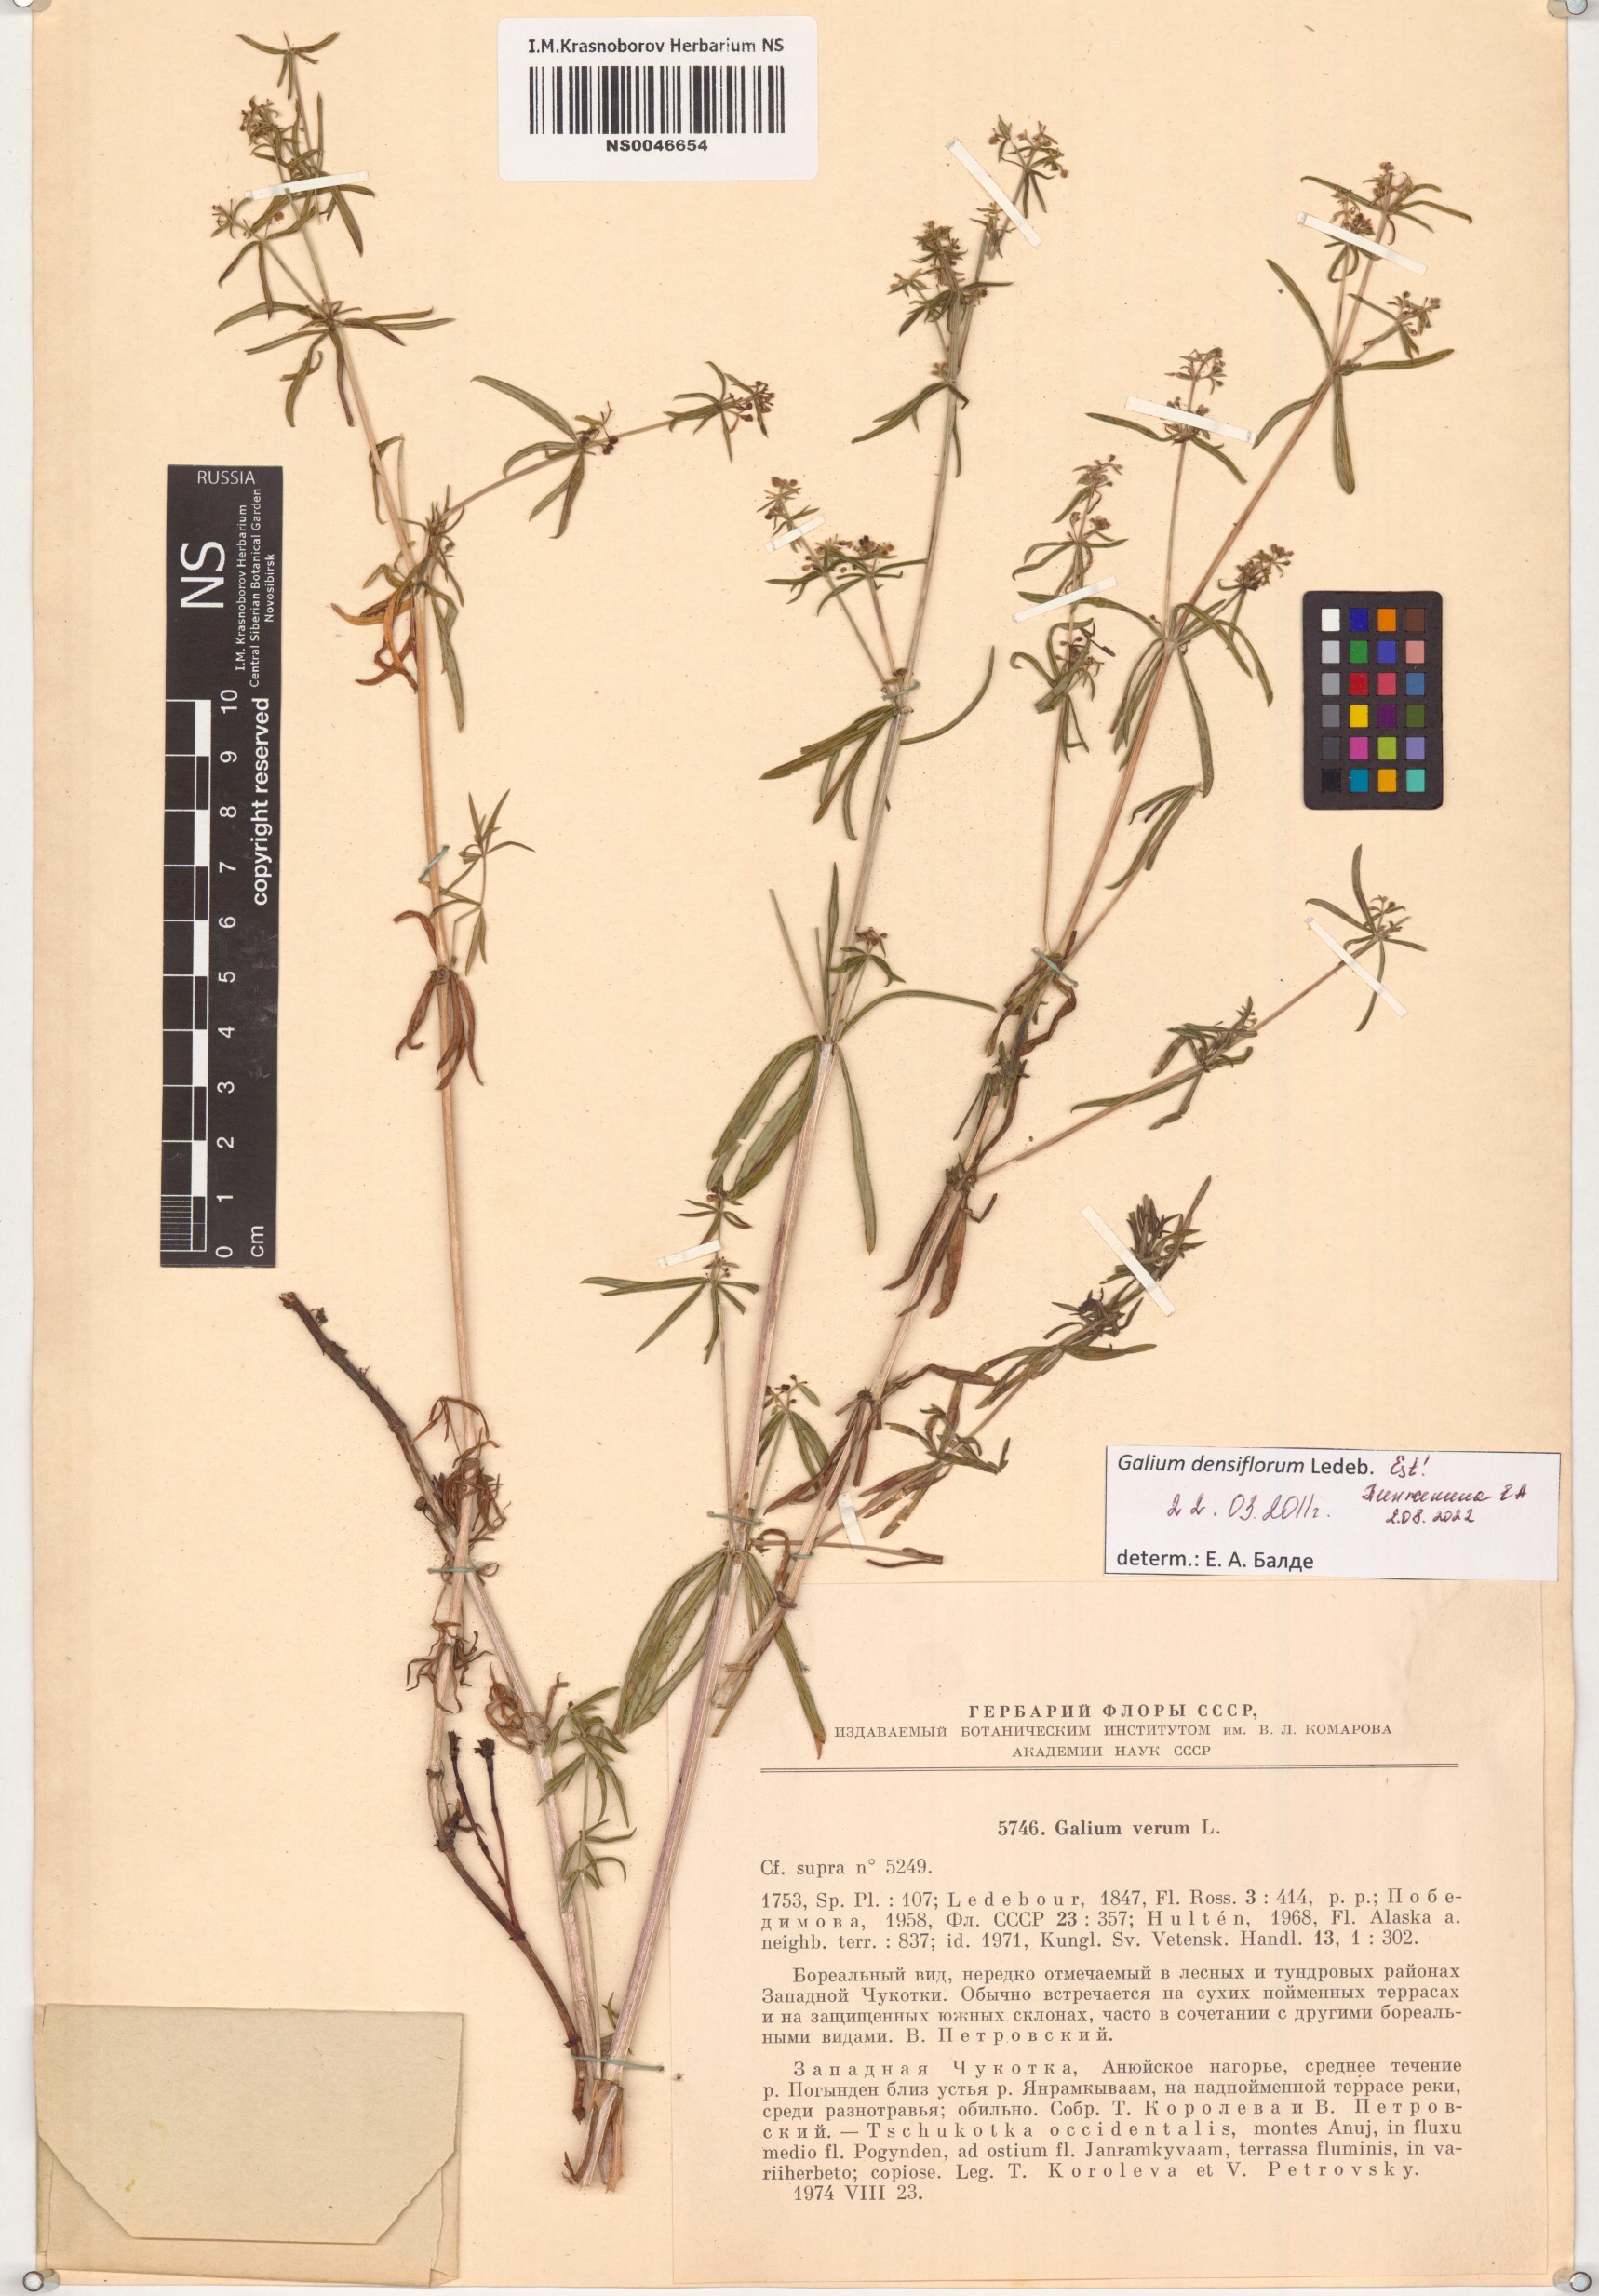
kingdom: Plantae
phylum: Tracheophyta
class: Magnoliopsida
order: Gentianales
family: Rubiaceae
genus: Galium
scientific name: Galium densiflorum
